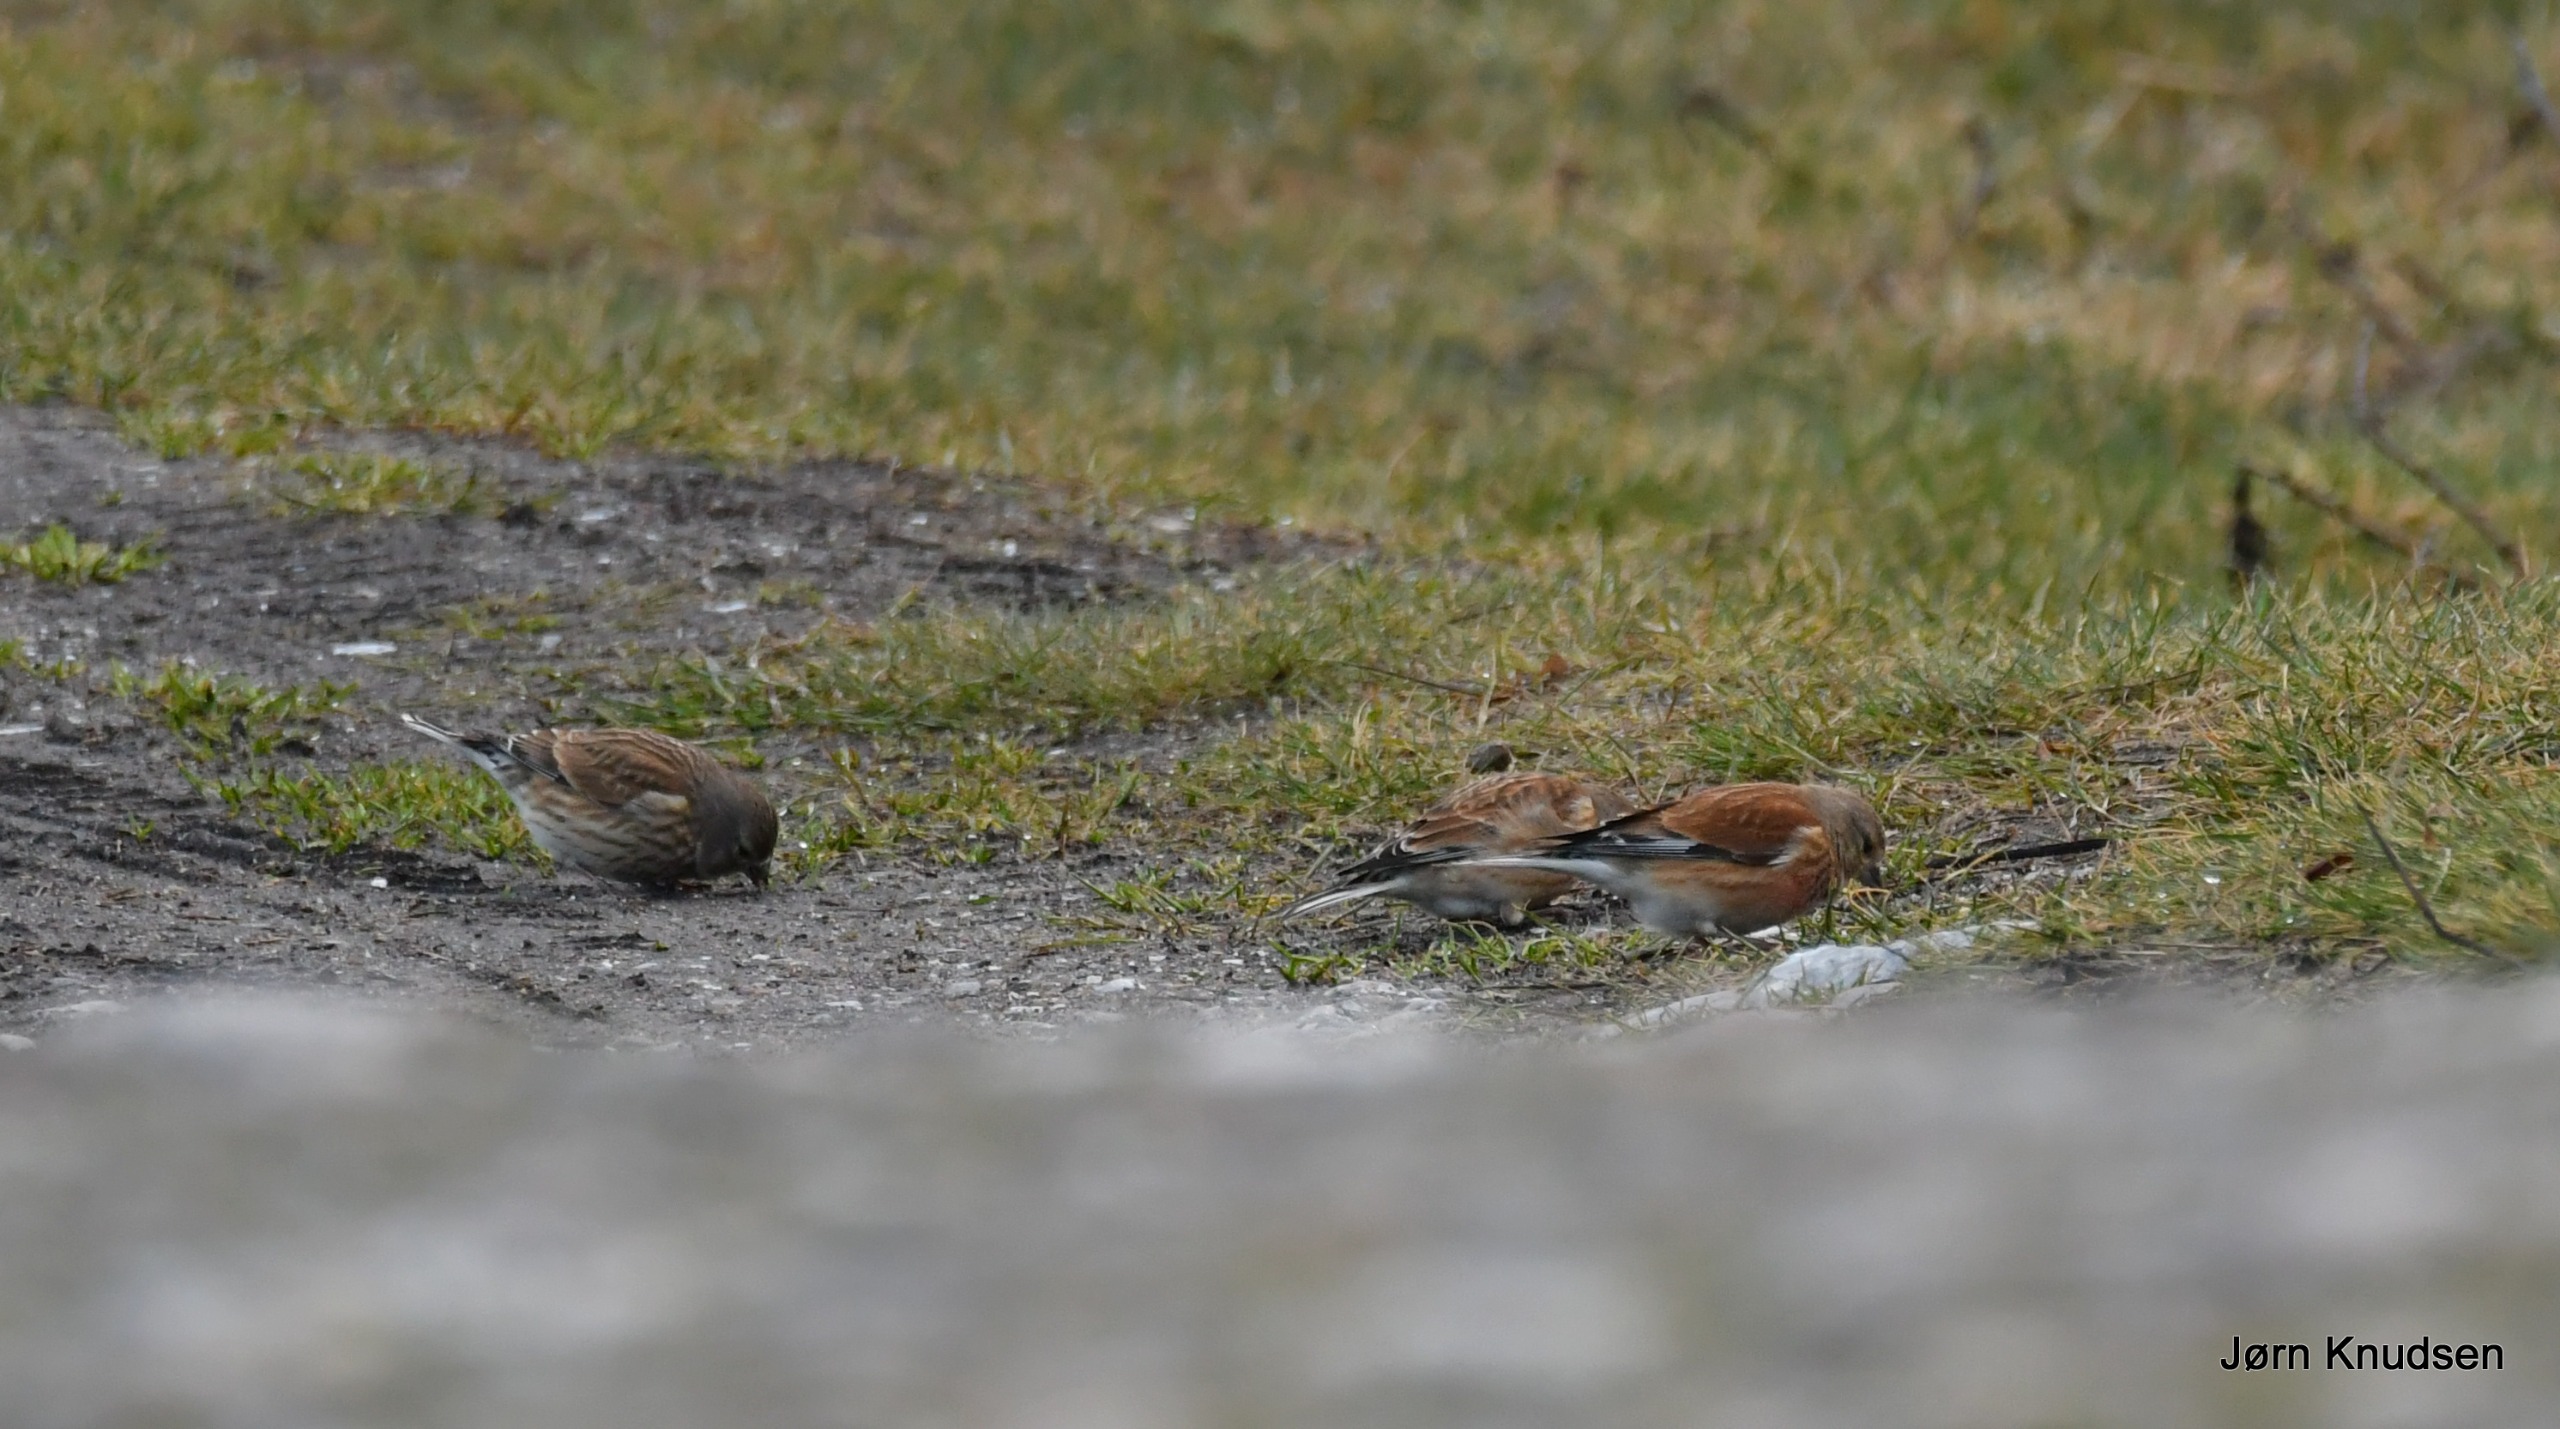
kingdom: Animalia
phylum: Chordata
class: Aves
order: Passeriformes
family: Fringillidae
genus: Linaria
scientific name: Linaria cannabina
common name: Tornirisk
